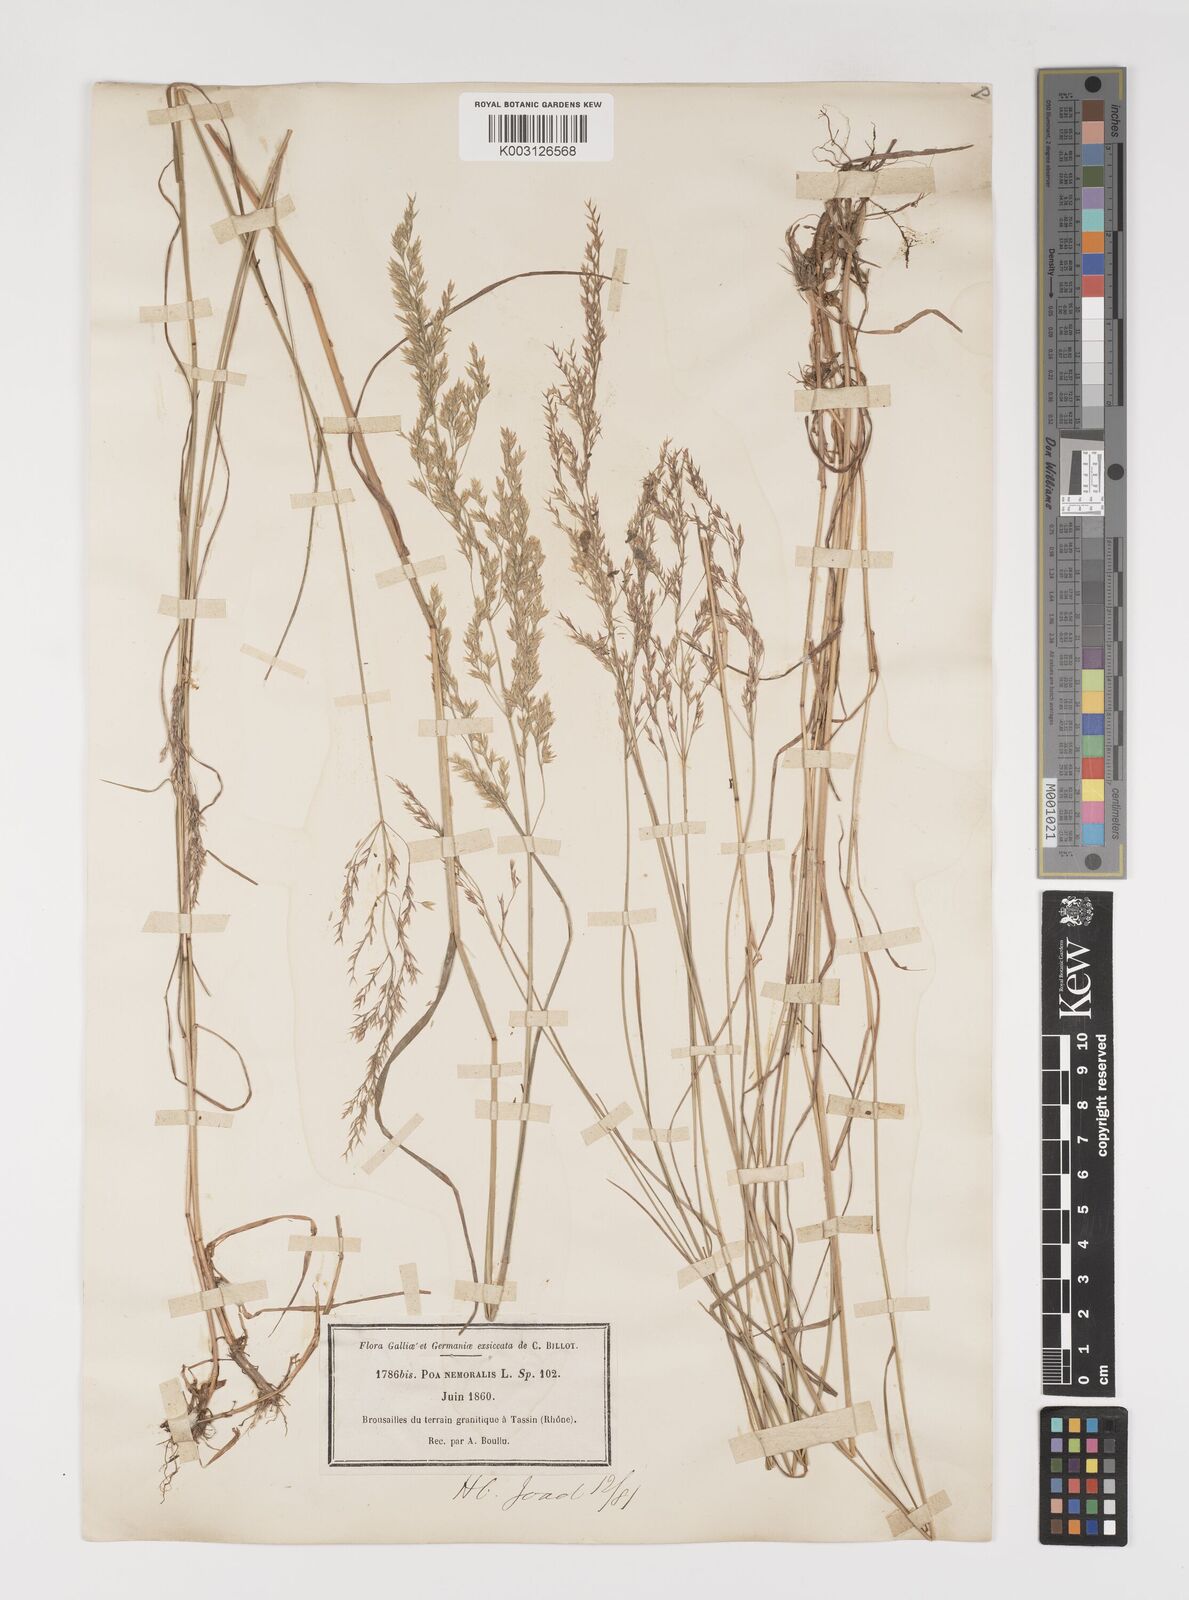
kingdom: Plantae
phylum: Tracheophyta
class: Liliopsida
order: Poales
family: Poaceae
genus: Poa
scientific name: Poa nemoralis
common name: Wood bluegrass
